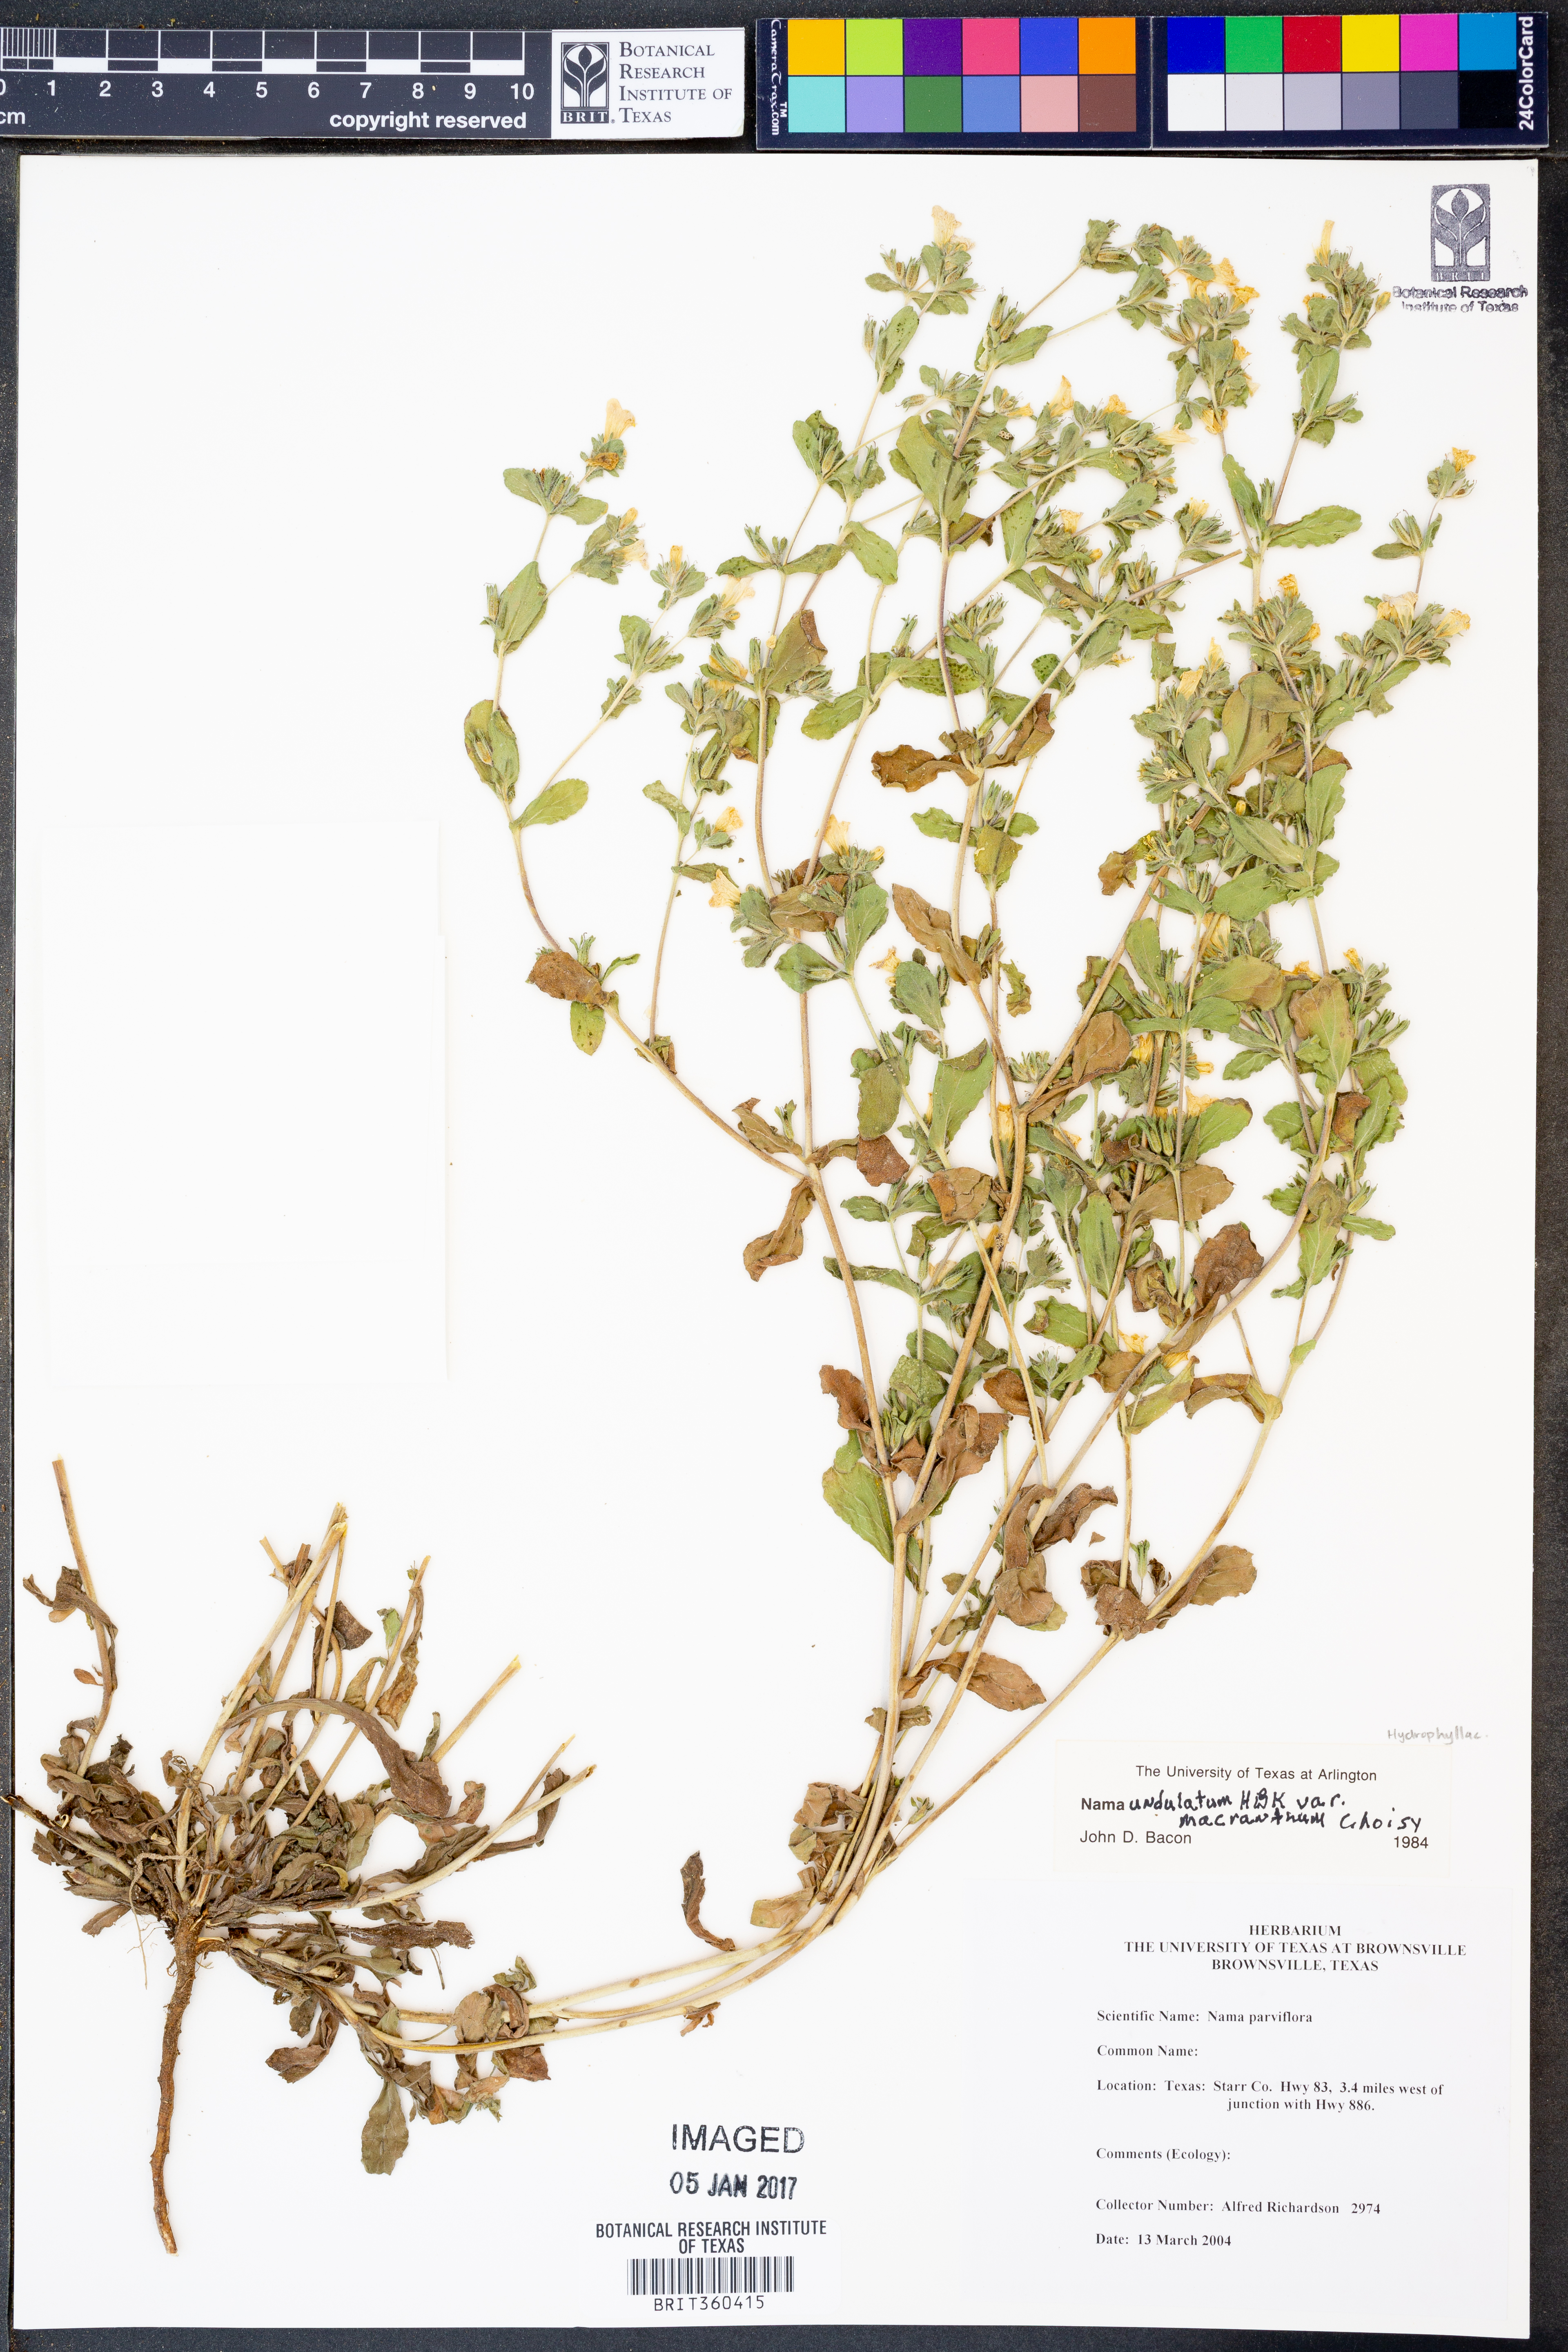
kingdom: Plantae
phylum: Tracheophyta
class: Magnoliopsida
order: Boraginales
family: Namaceae
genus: Nama
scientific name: Nama undulata
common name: Whitewhisker fiddleleaf
